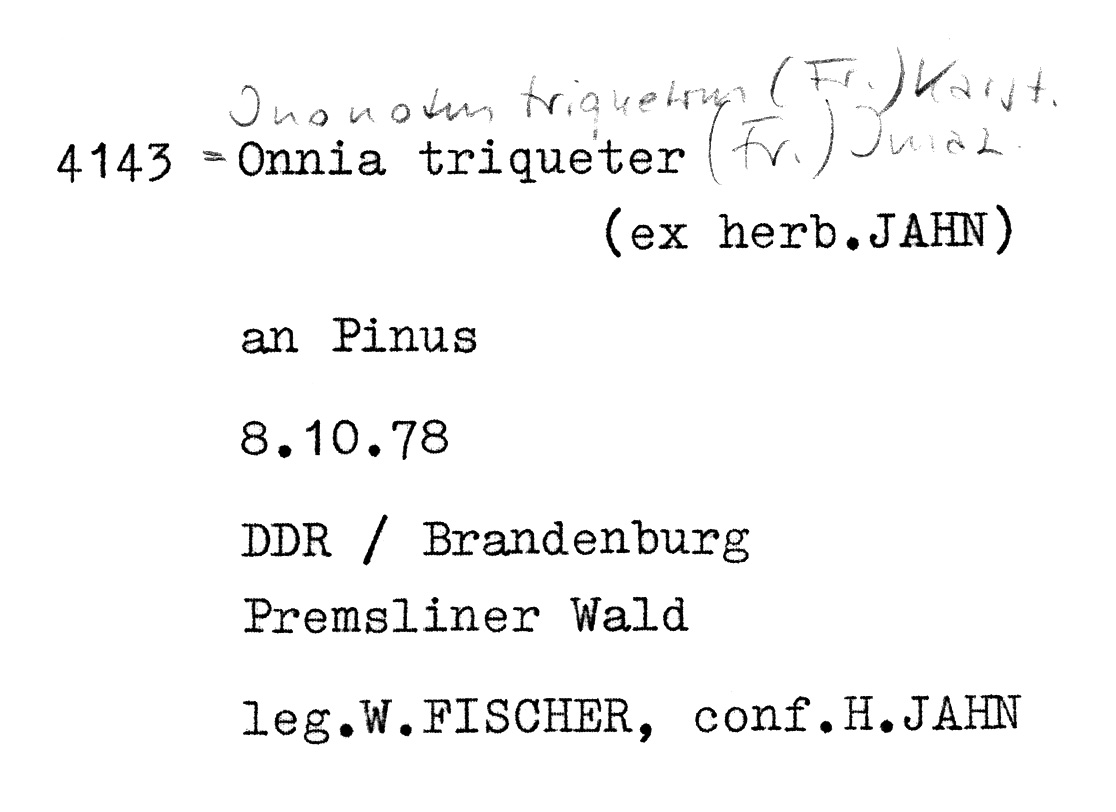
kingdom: Plantae
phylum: Tracheophyta
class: Pinopsida
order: Pinales
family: Pinaceae
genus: Pinus
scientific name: Pinus
